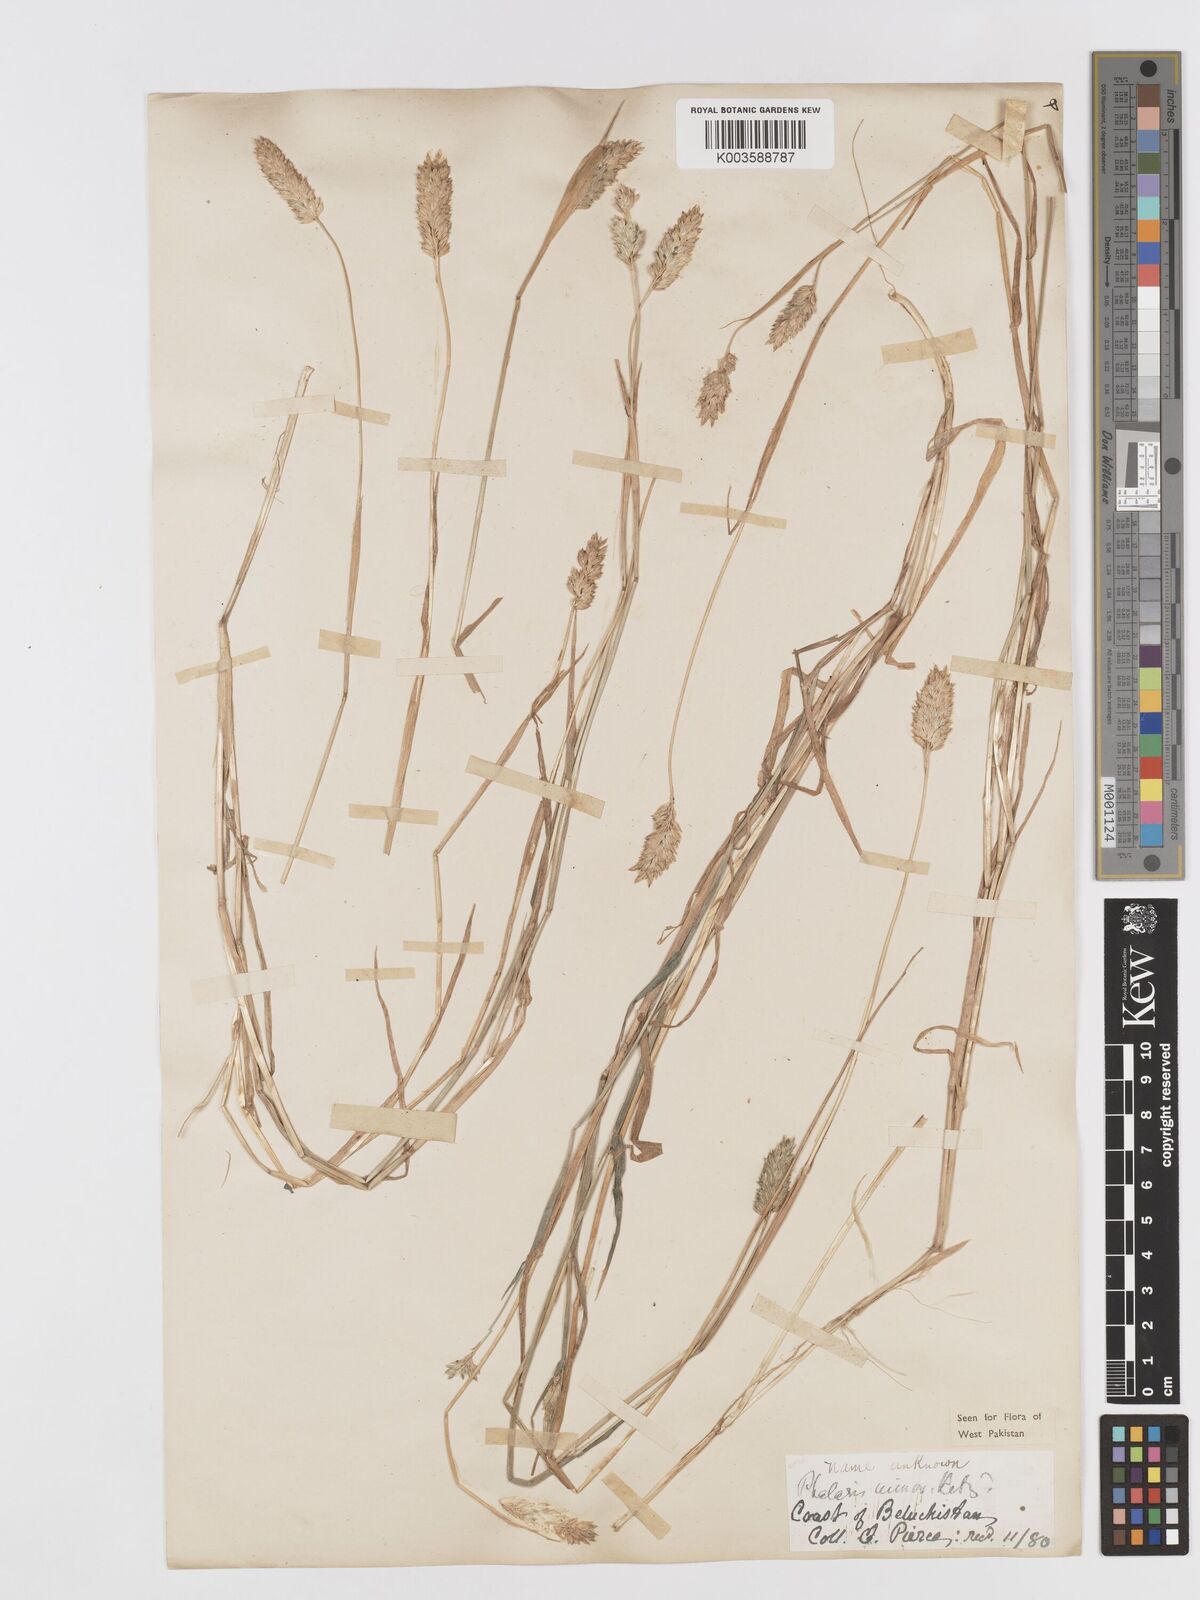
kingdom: Plantae
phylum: Tracheophyta
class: Liliopsida
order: Poales
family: Poaceae
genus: Phalaris
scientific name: Phalaris minor
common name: Littleseed canarygrass
